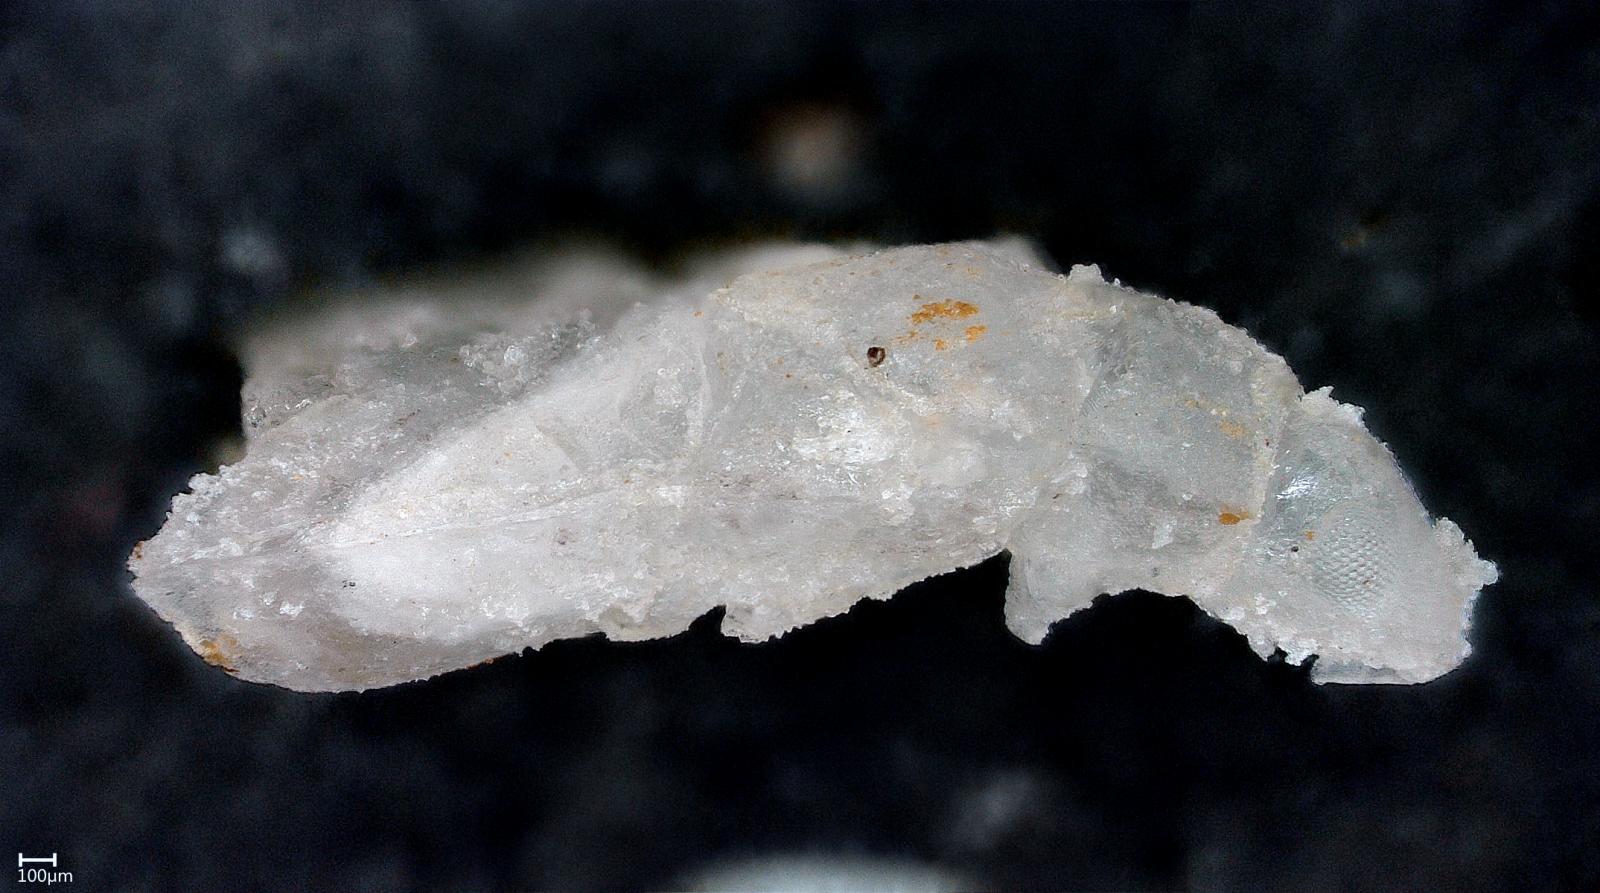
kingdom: Animalia
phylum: Arthropoda
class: Insecta
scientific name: Insecta
